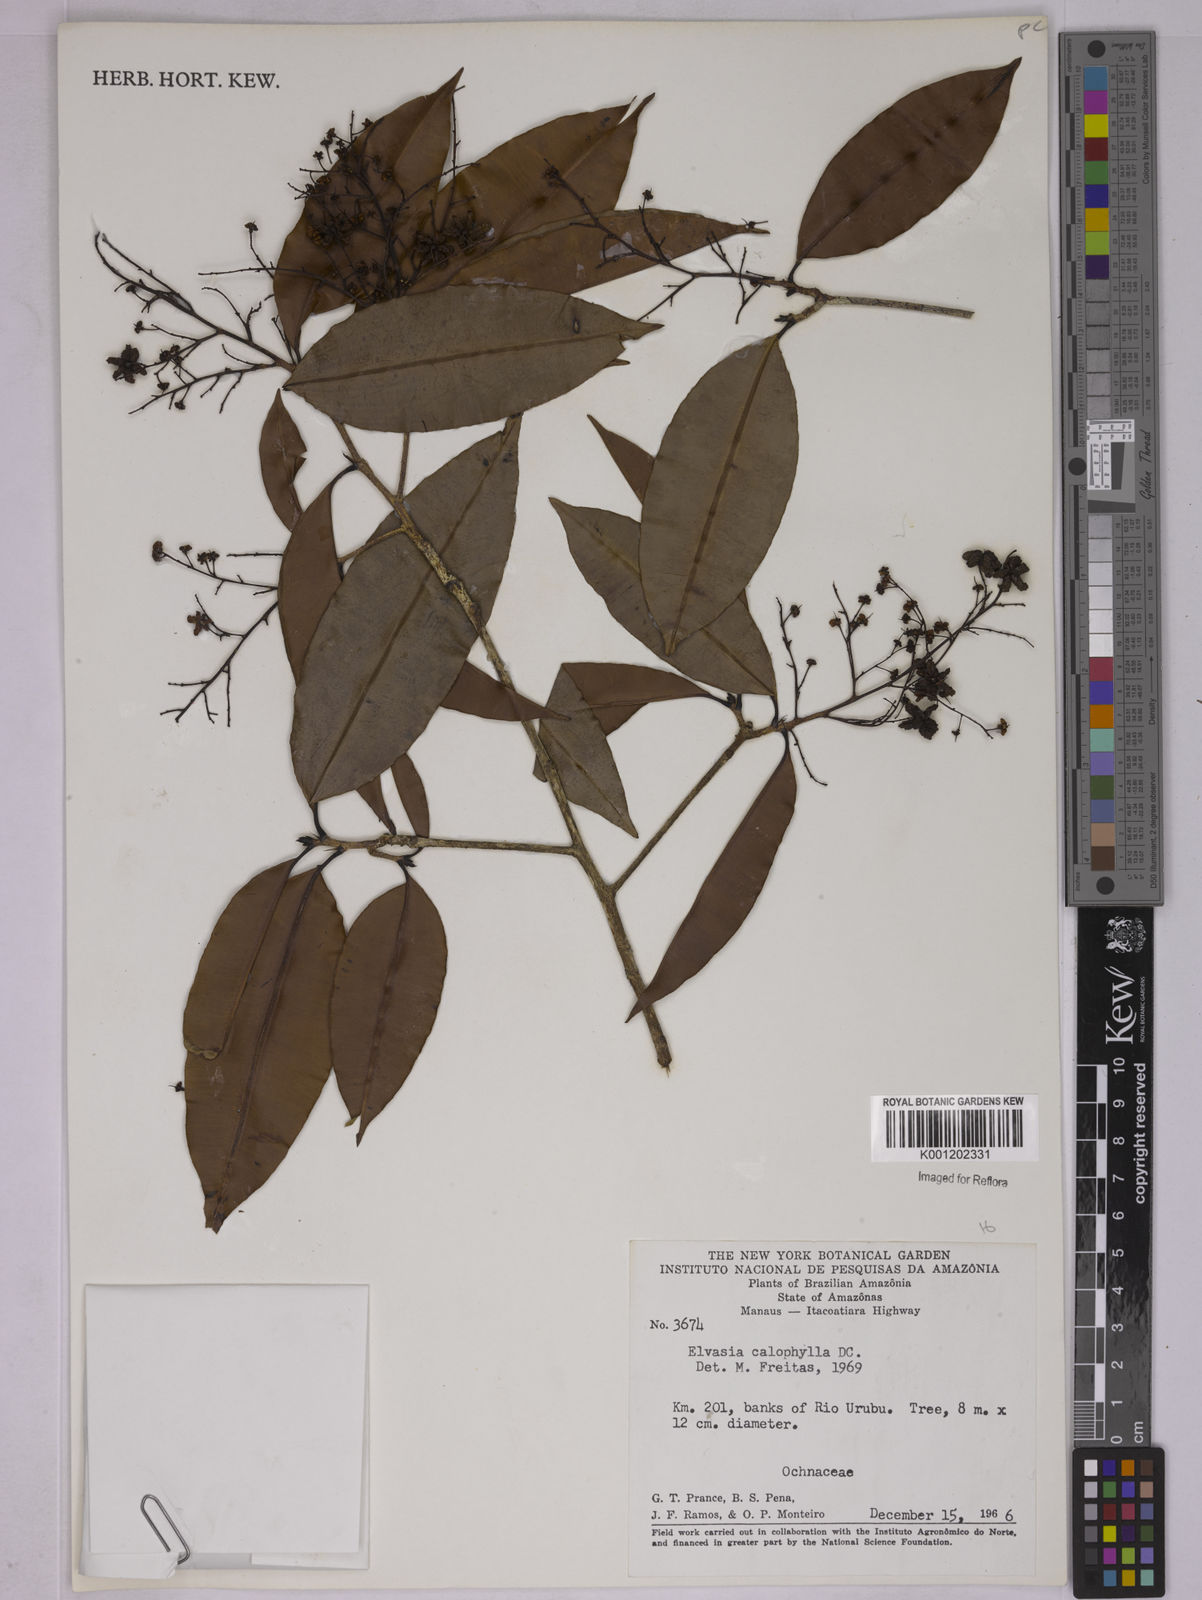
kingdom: Plantae
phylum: Tracheophyta
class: Magnoliopsida
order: Malpighiales
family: Ochnaceae
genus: Elvasia
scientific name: Elvasia calophyllea
